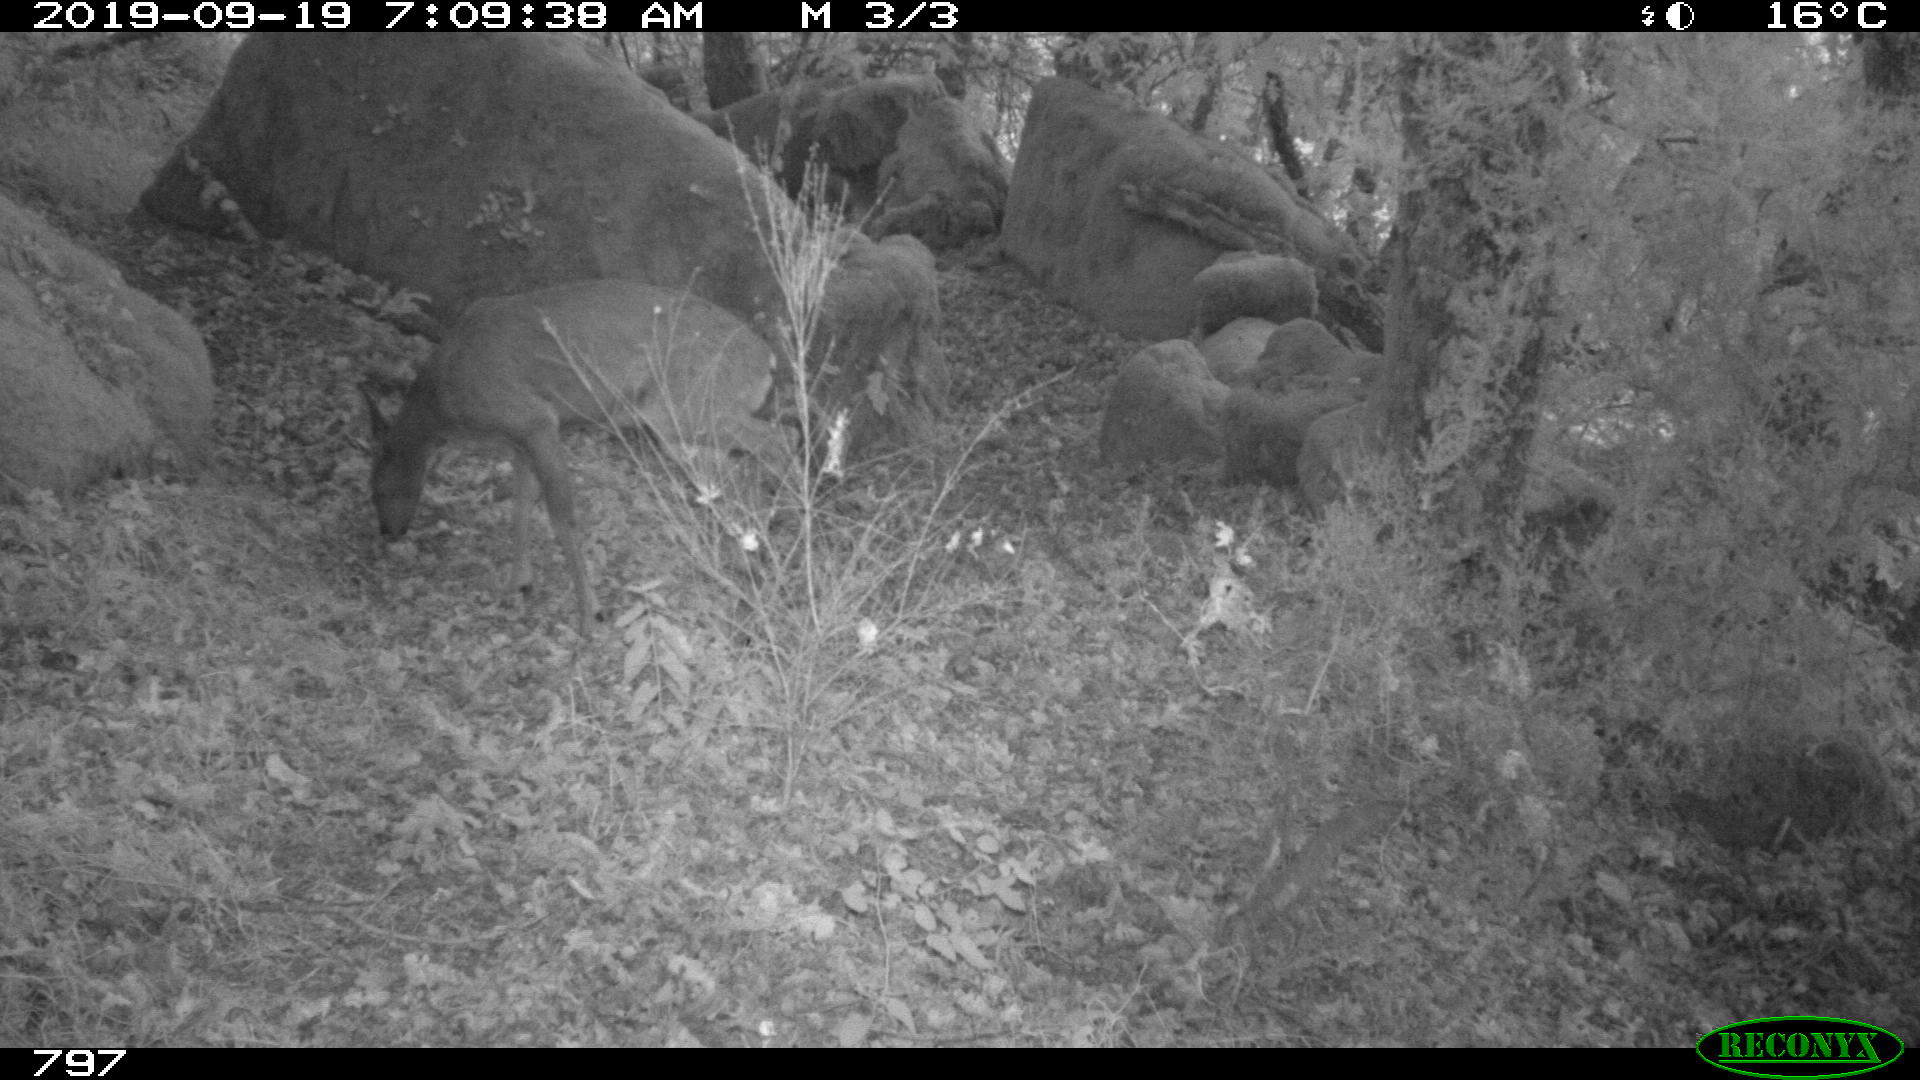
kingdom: Animalia
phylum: Chordata
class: Mammalia
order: Artiodactyla
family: Cervidae
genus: Capreolus
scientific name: Capreolus capreolus
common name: Western roe deer
